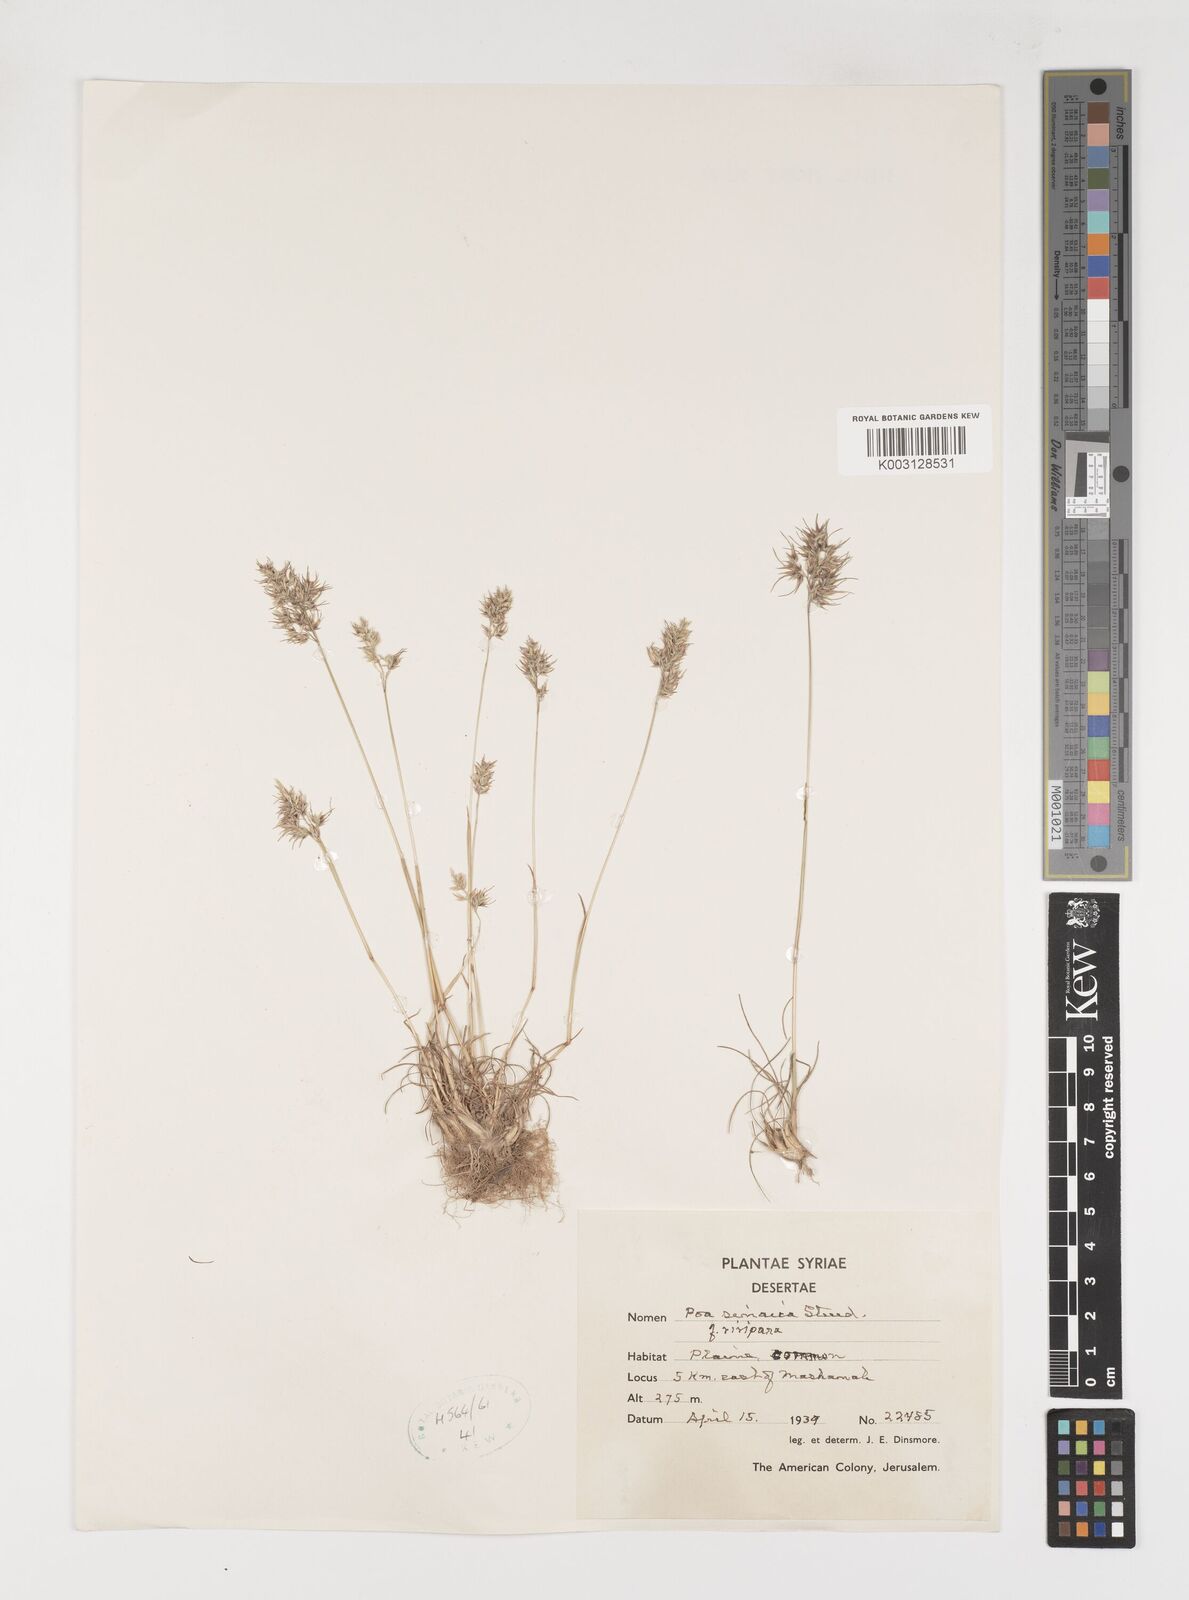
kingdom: Plantae
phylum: Tracheophyta
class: Liliopsida
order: Poales
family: Poaceae
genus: Poa
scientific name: Poa sinaica
